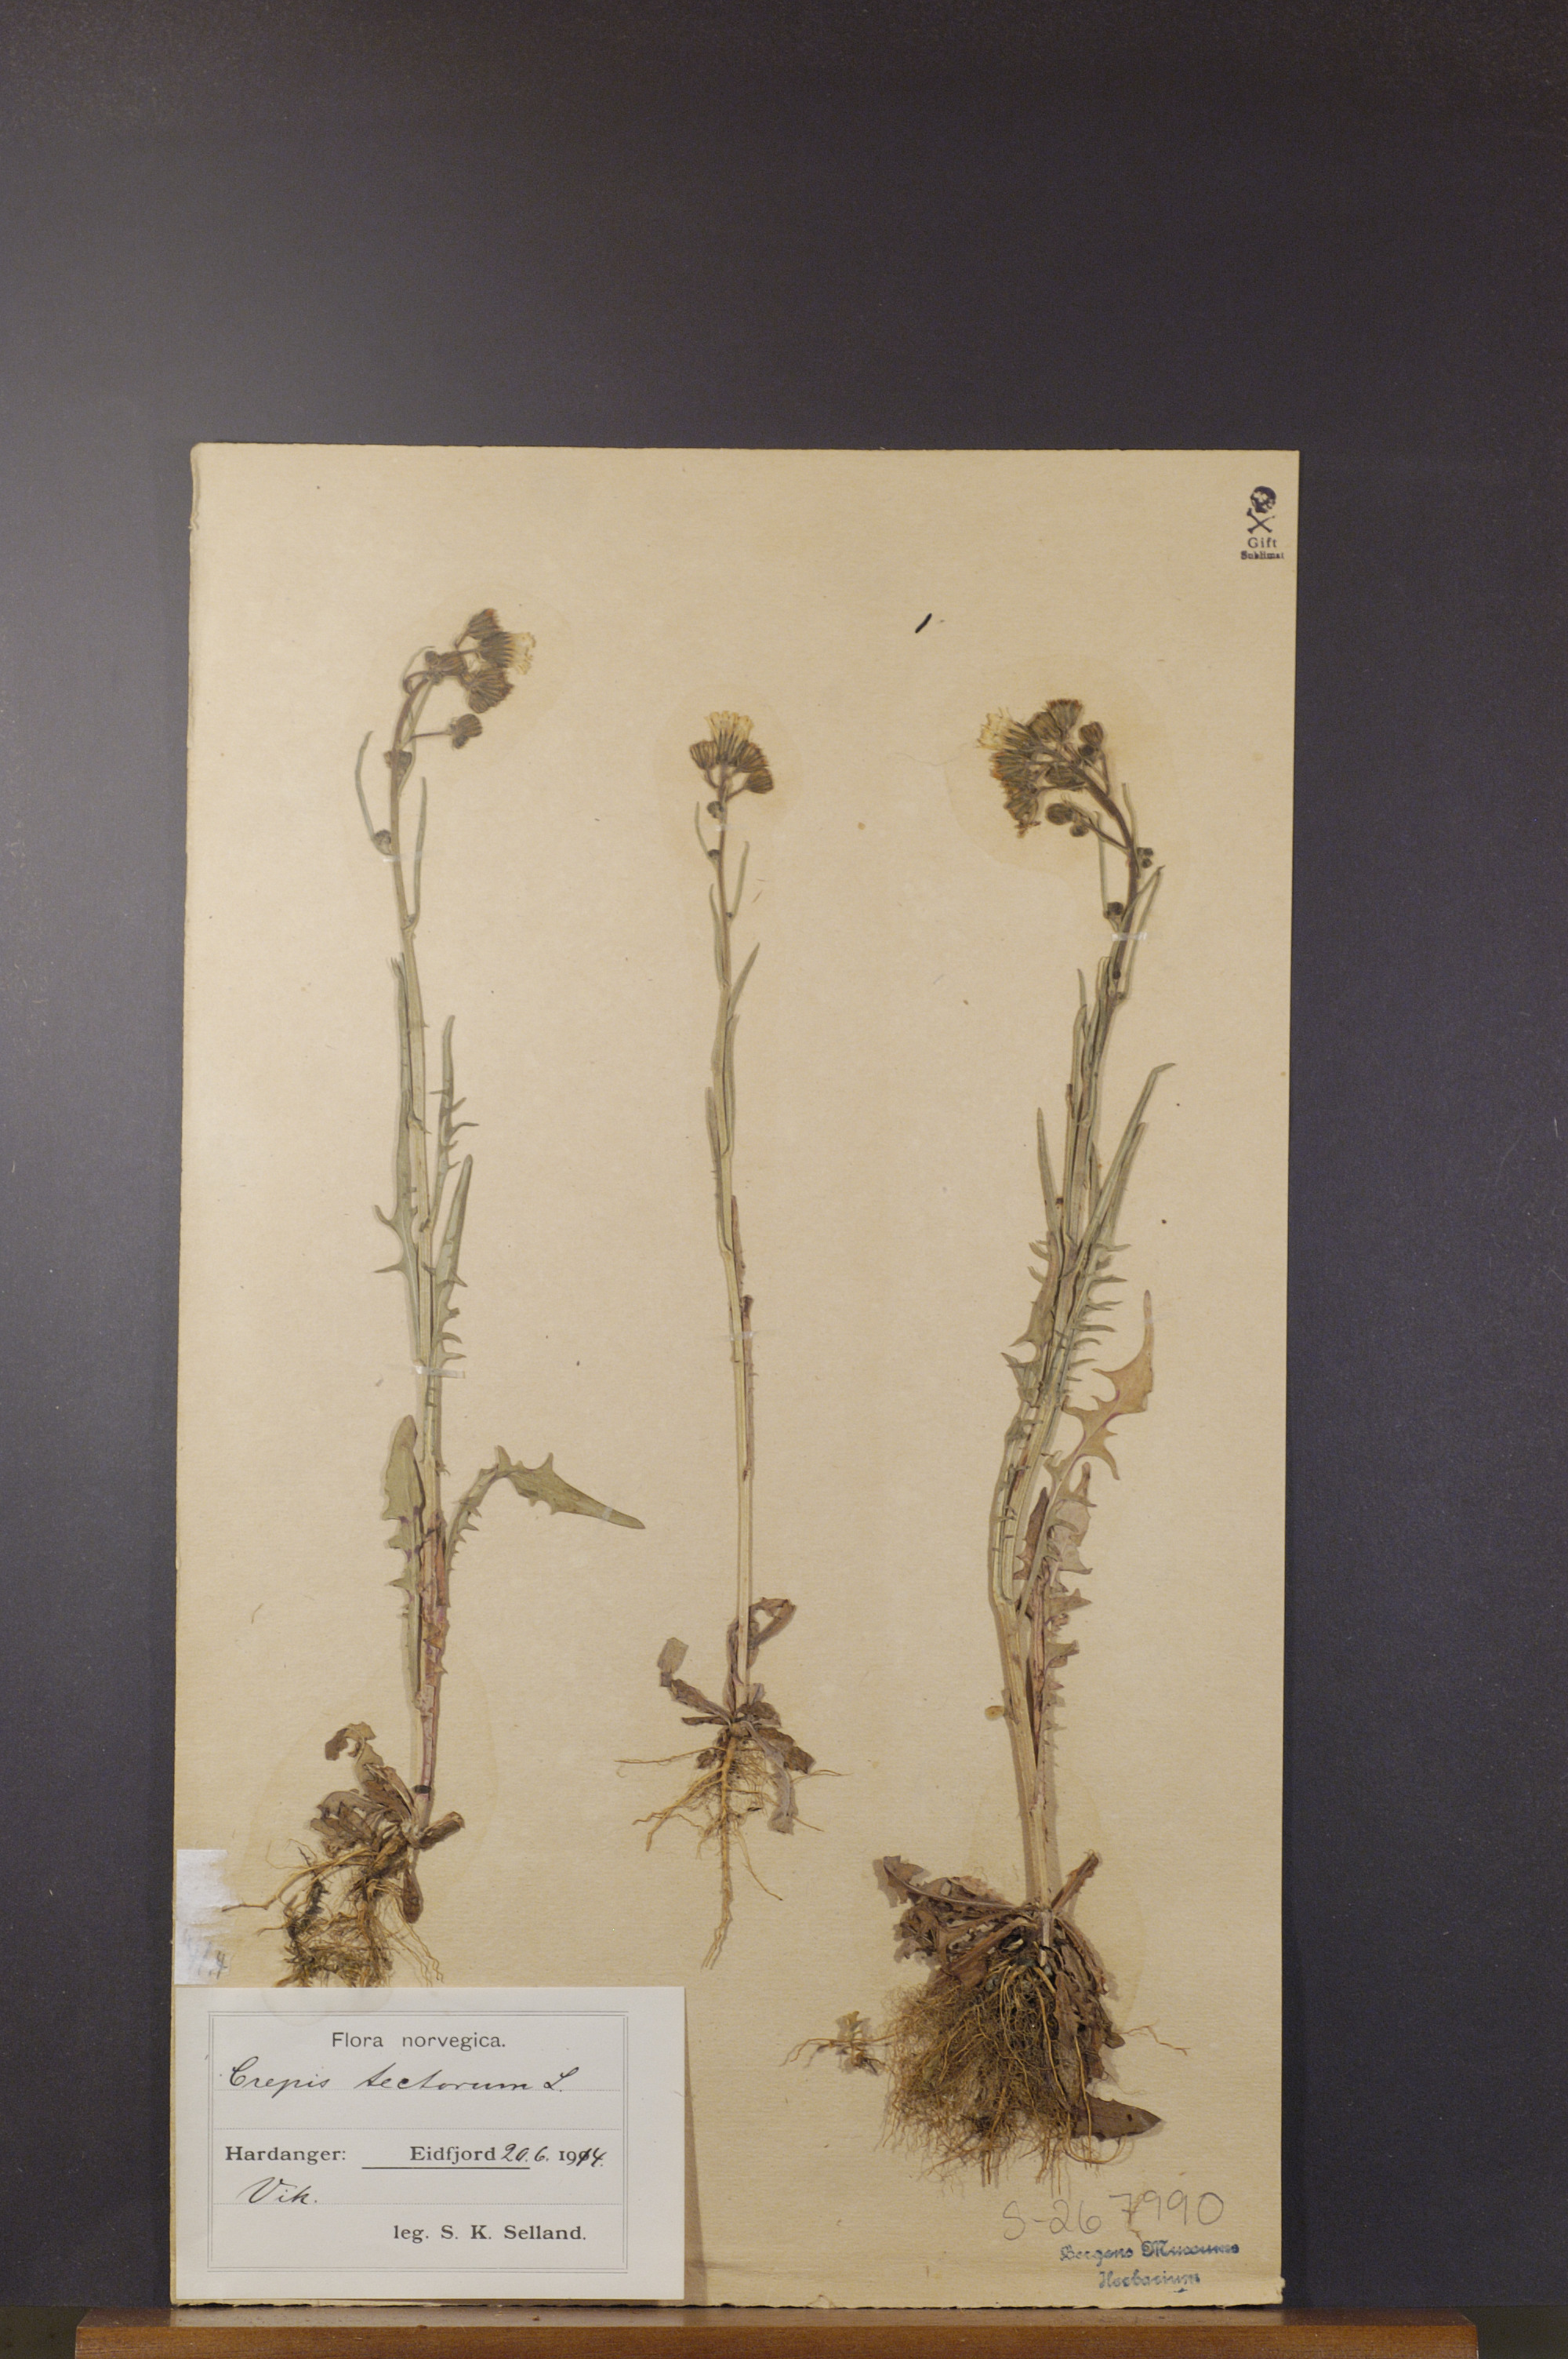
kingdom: Plantae
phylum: Tracheophyta
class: Magnoliopsida
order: Asterales
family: Asteraceae
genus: Crepis
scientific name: Crepis tectorum
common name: Narrow-leaved hawk's-beard
